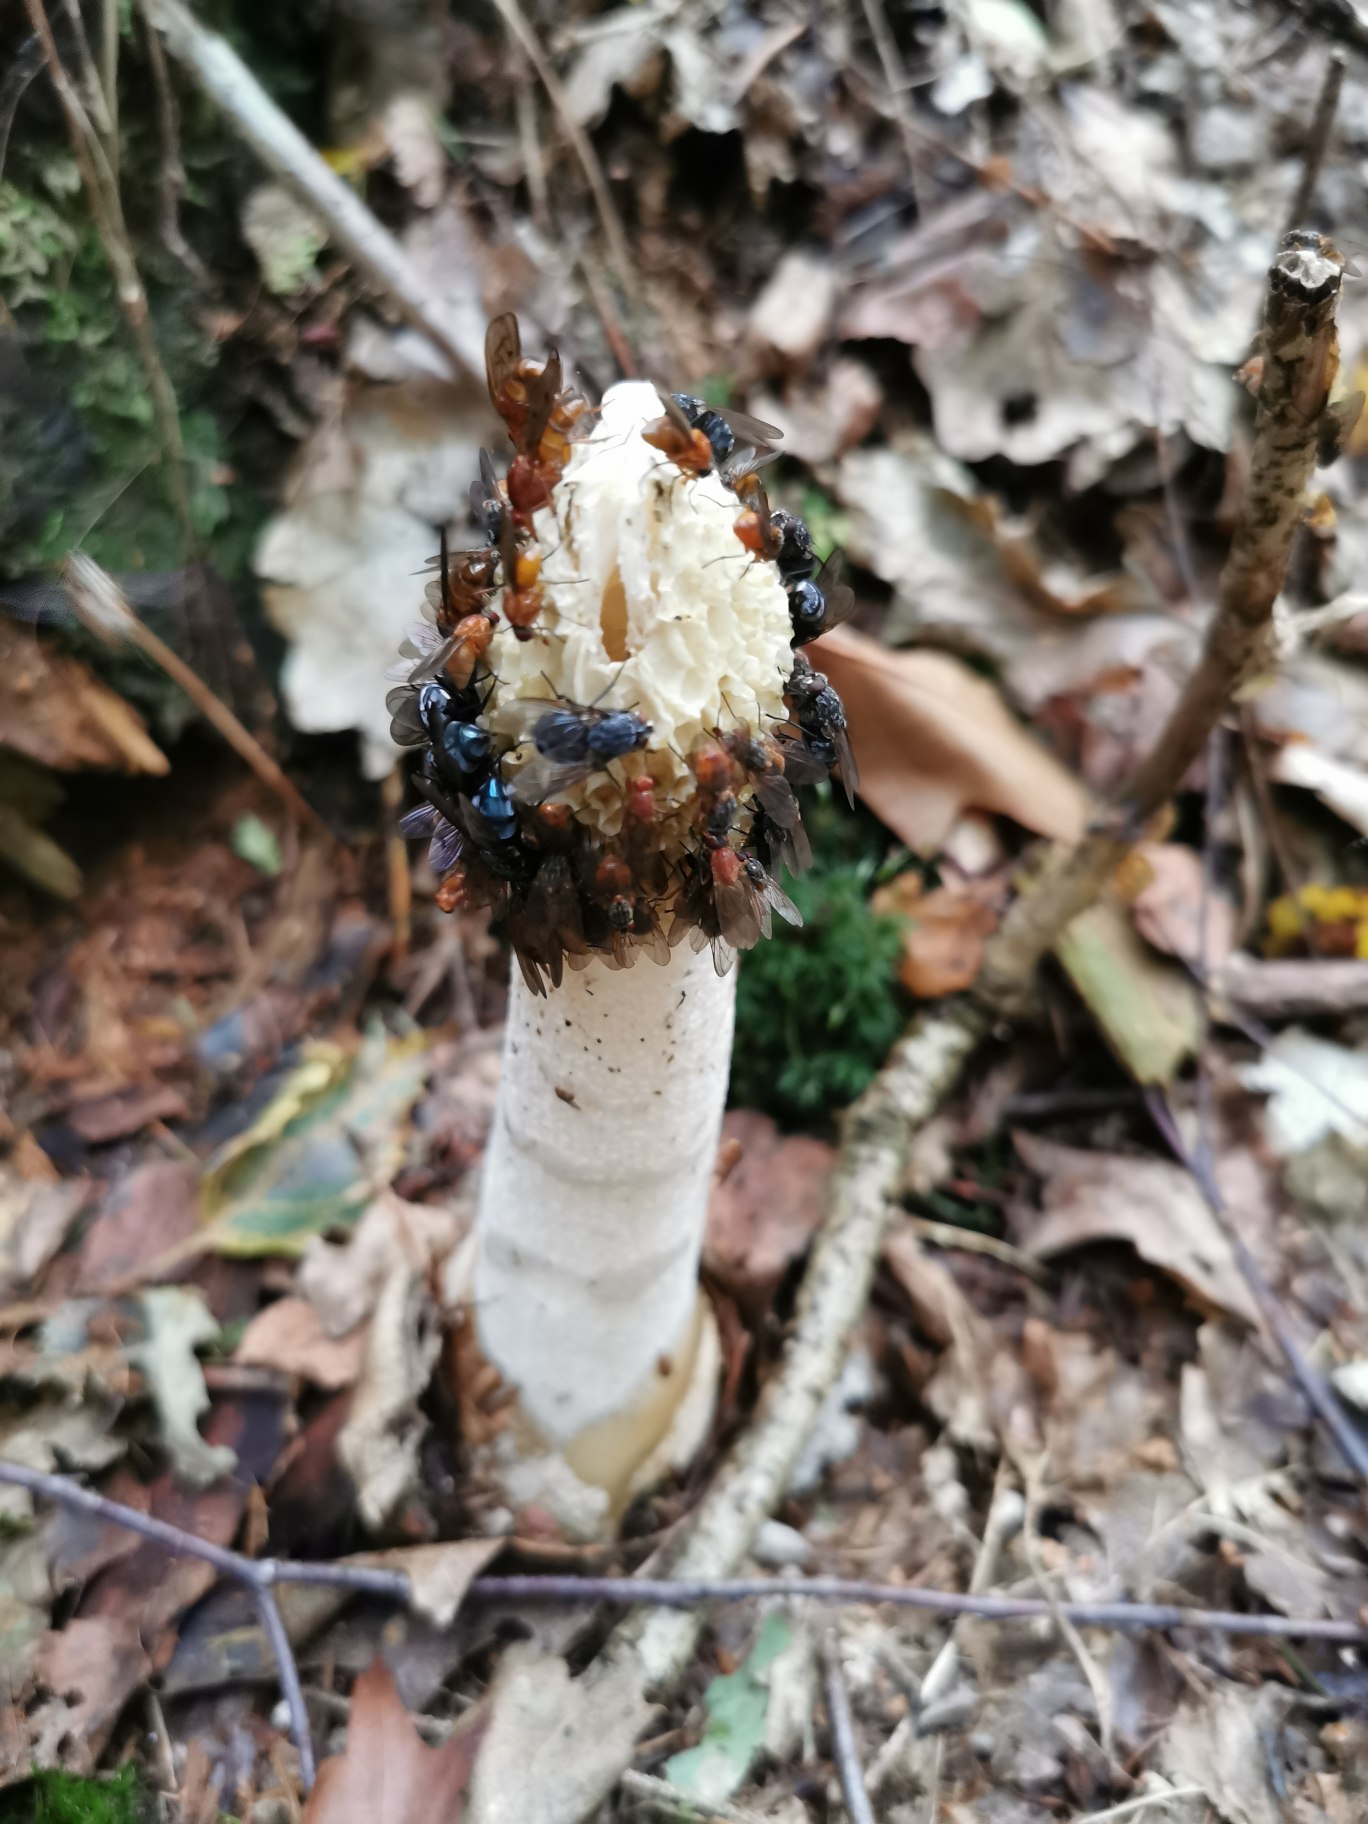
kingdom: Fungi
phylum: Basidiomycota
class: Agaricomycetes
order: Phallales
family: Phallaceae
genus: Phallus
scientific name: Phallus impudicus
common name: Almindelig stinksvamp
